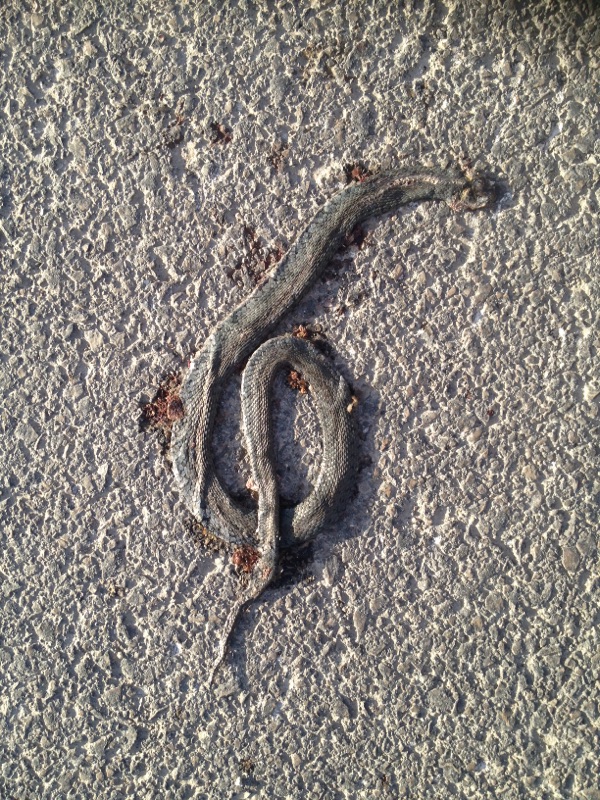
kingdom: Animalia
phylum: Chordata
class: Squamata
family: Colubridae
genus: Natrix
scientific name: Natrix natrix
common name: Grass snake
